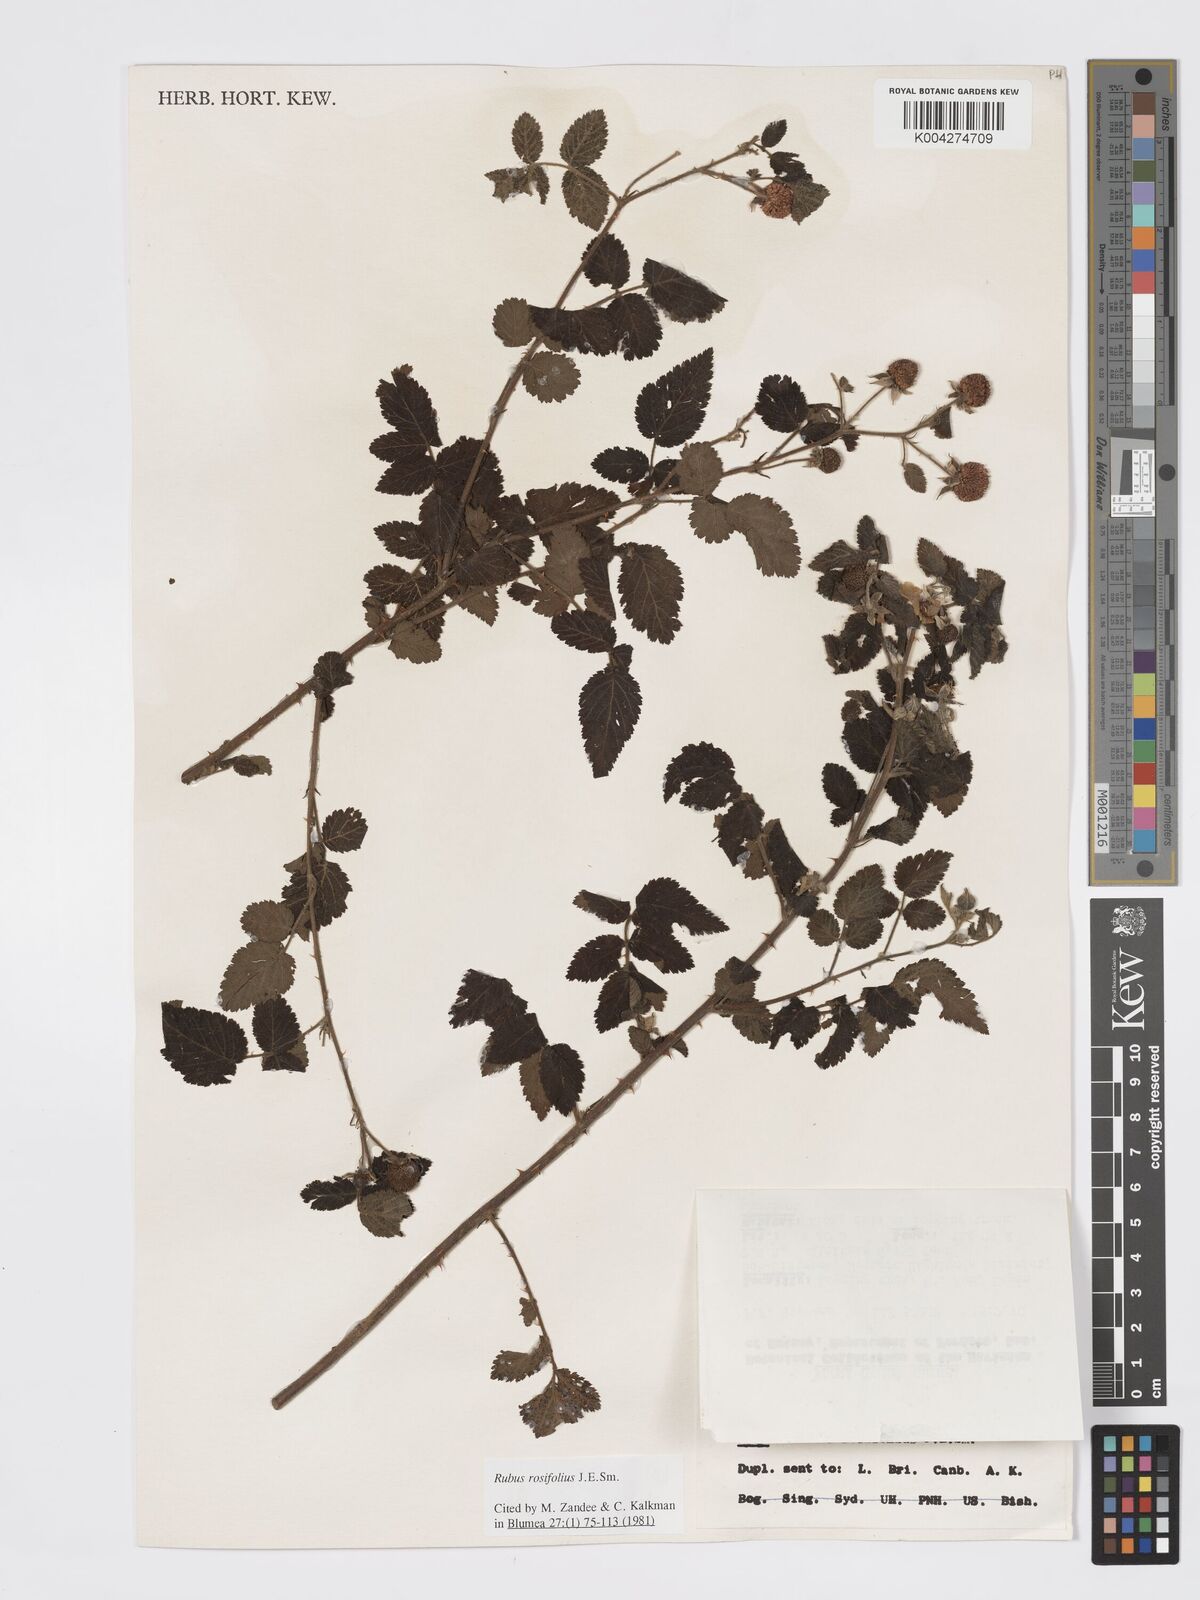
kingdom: Plantae
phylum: Tracheophyta
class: Magnoliopsida
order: Rosales
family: Rosaceae
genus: Rubus
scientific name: Rubus
